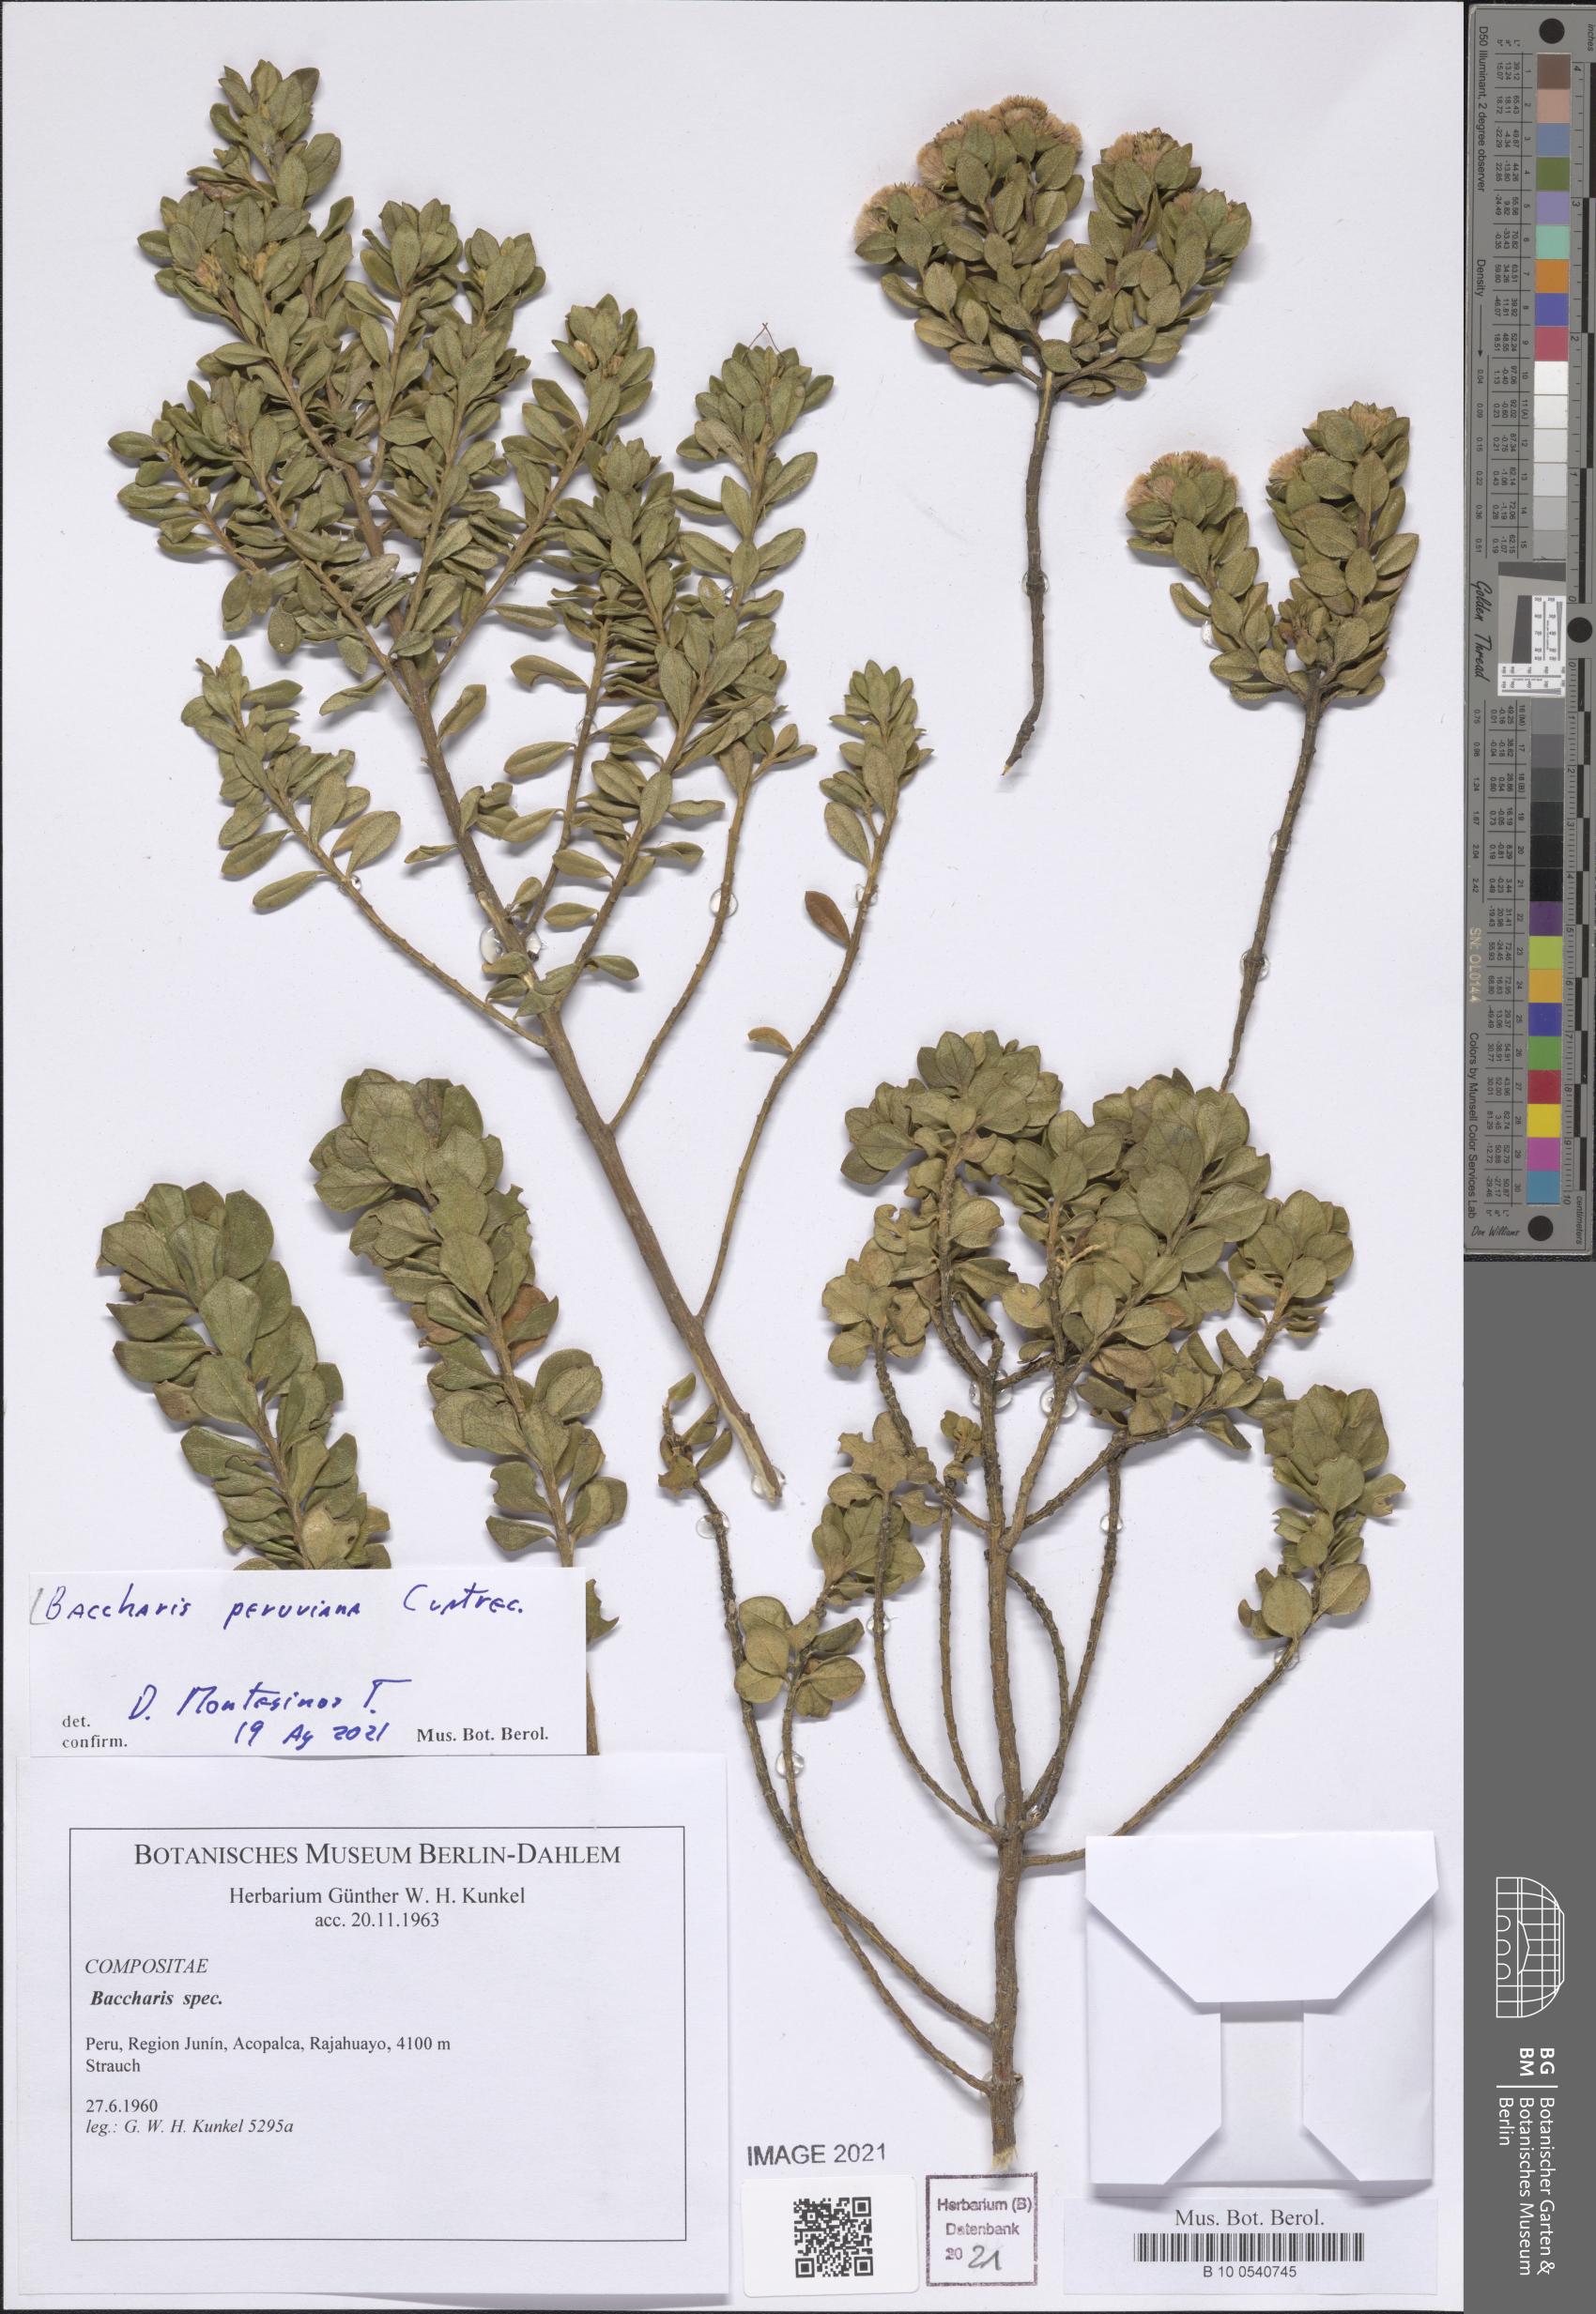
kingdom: Plantae
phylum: Tracheophyta
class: Magnoliopsida
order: Asterales
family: Asteraceae
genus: Baccharis
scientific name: Baccharis peruviana
